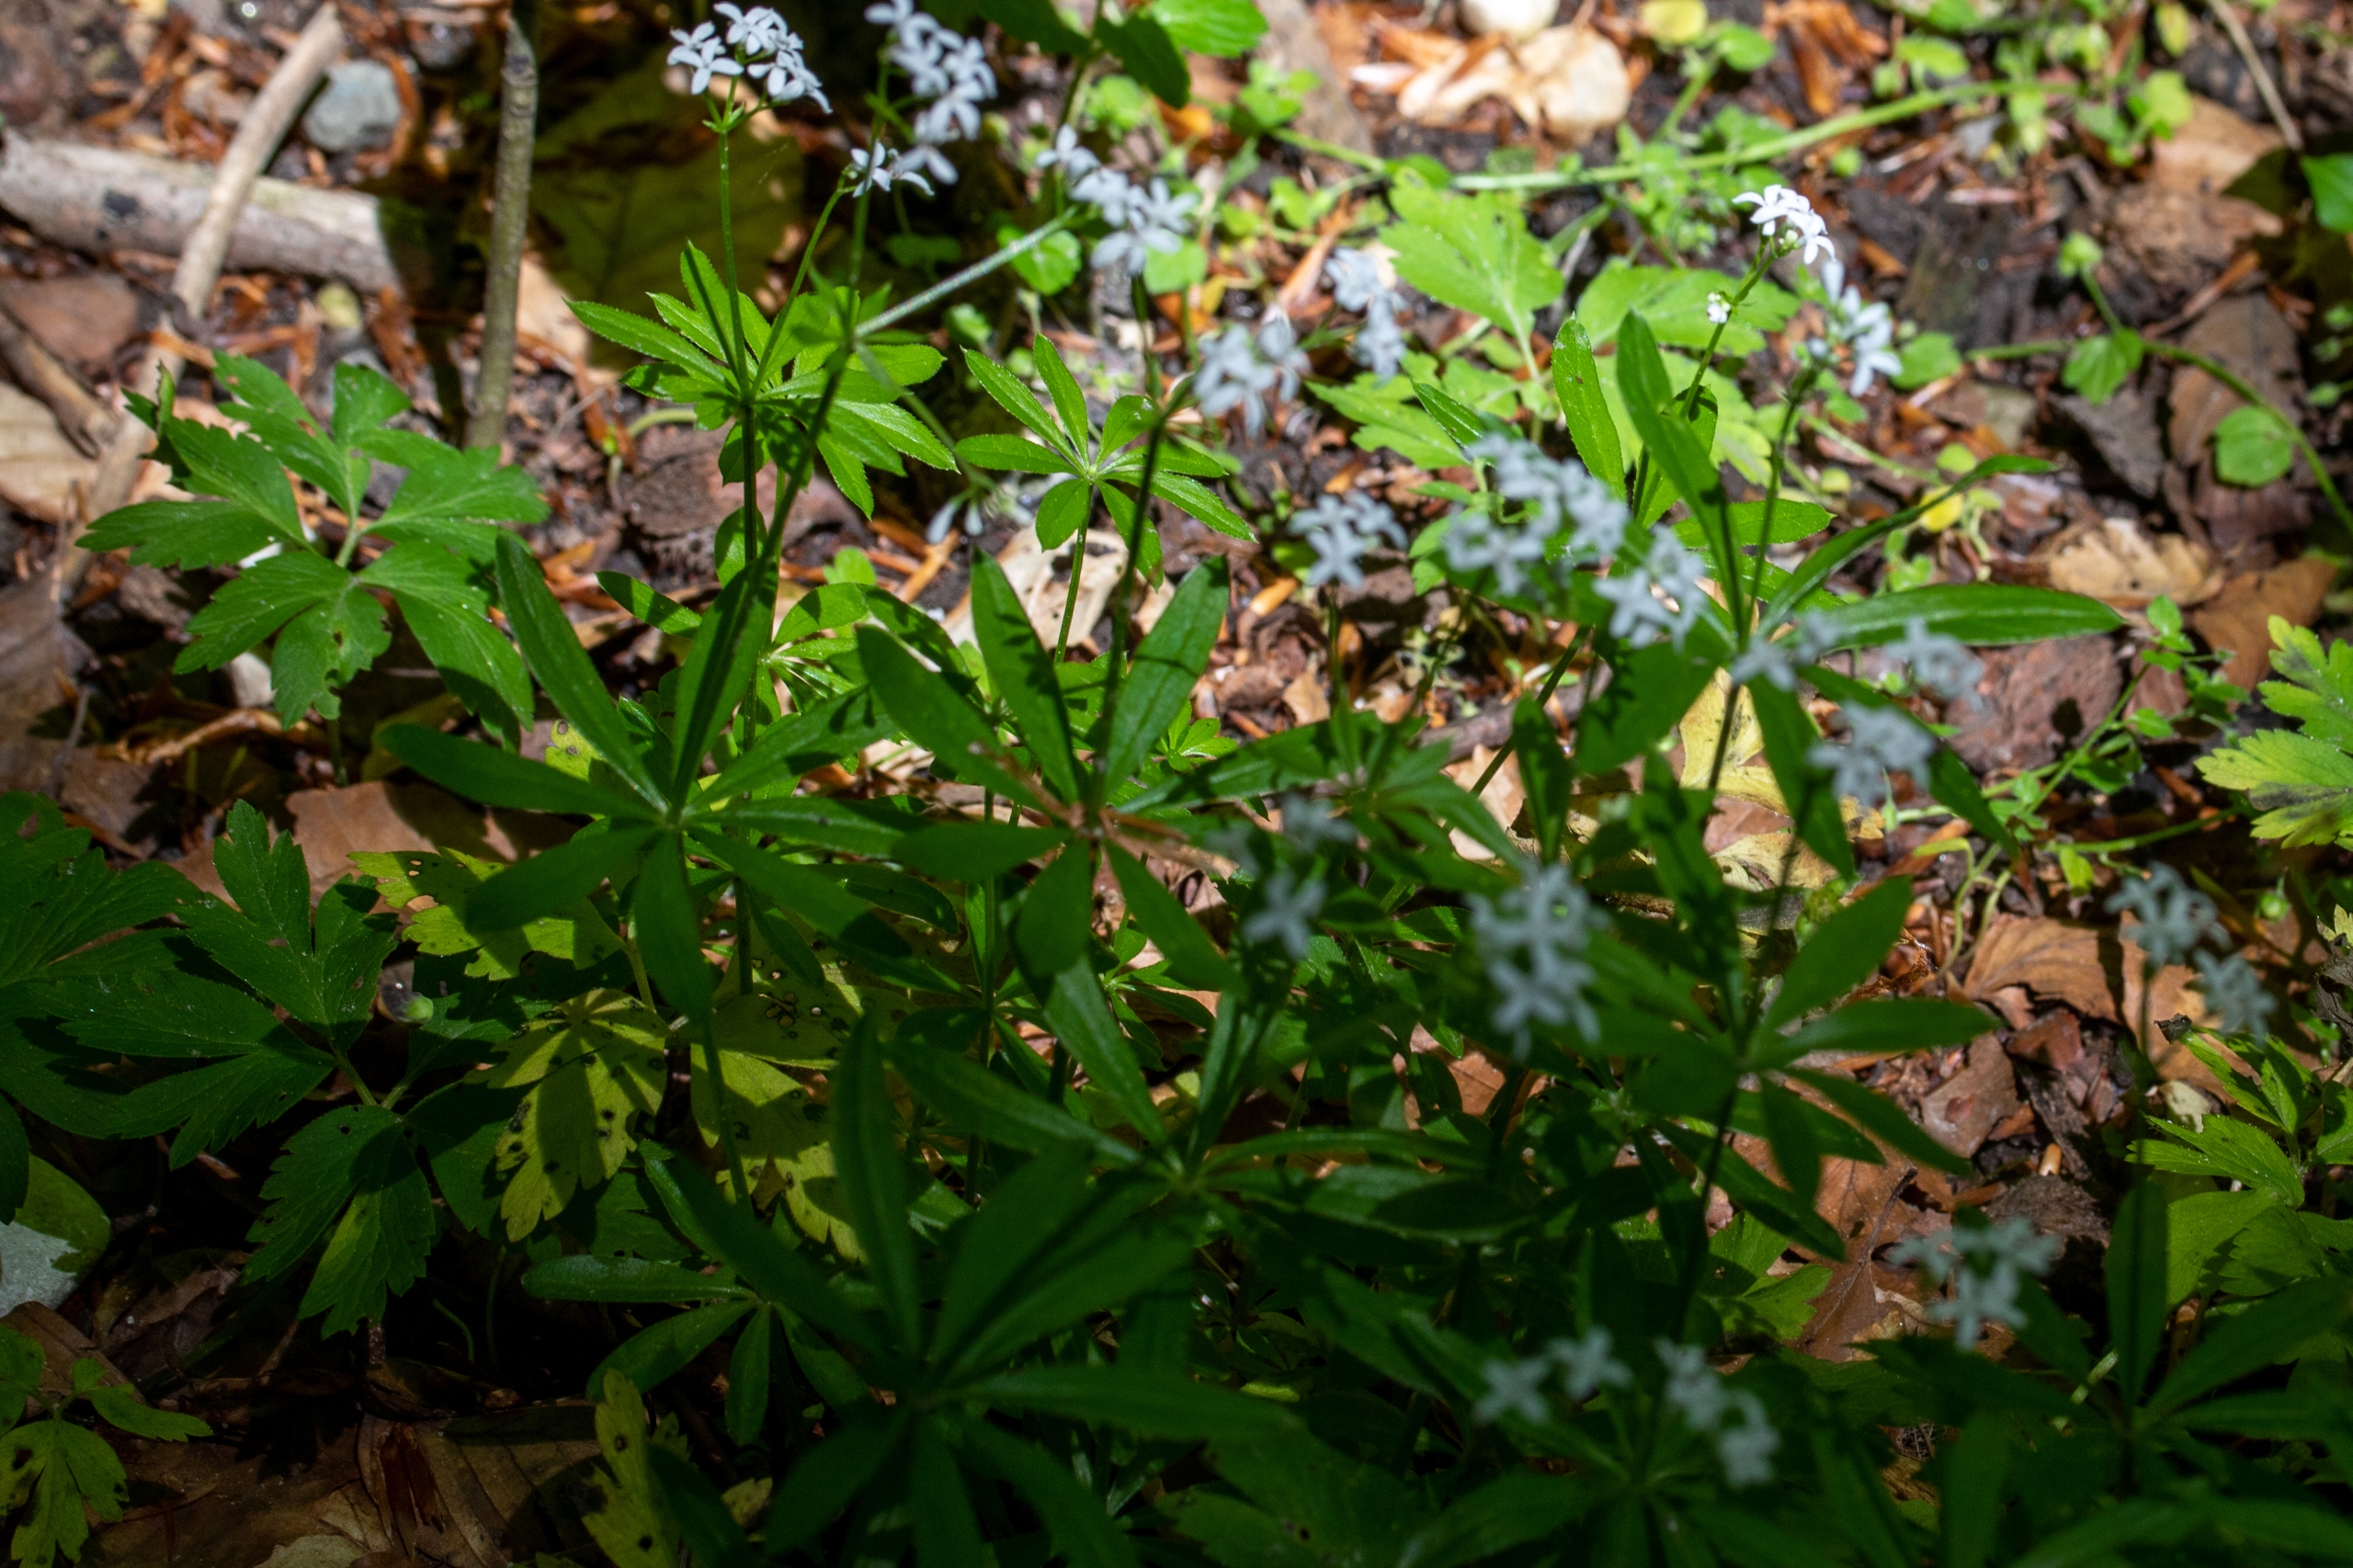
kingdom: Plantae
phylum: Tracheophyta
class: Magnoliopsida
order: Gentianales
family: Rubiaceae
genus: Galium
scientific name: Galium odoratum
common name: Skovmærke
